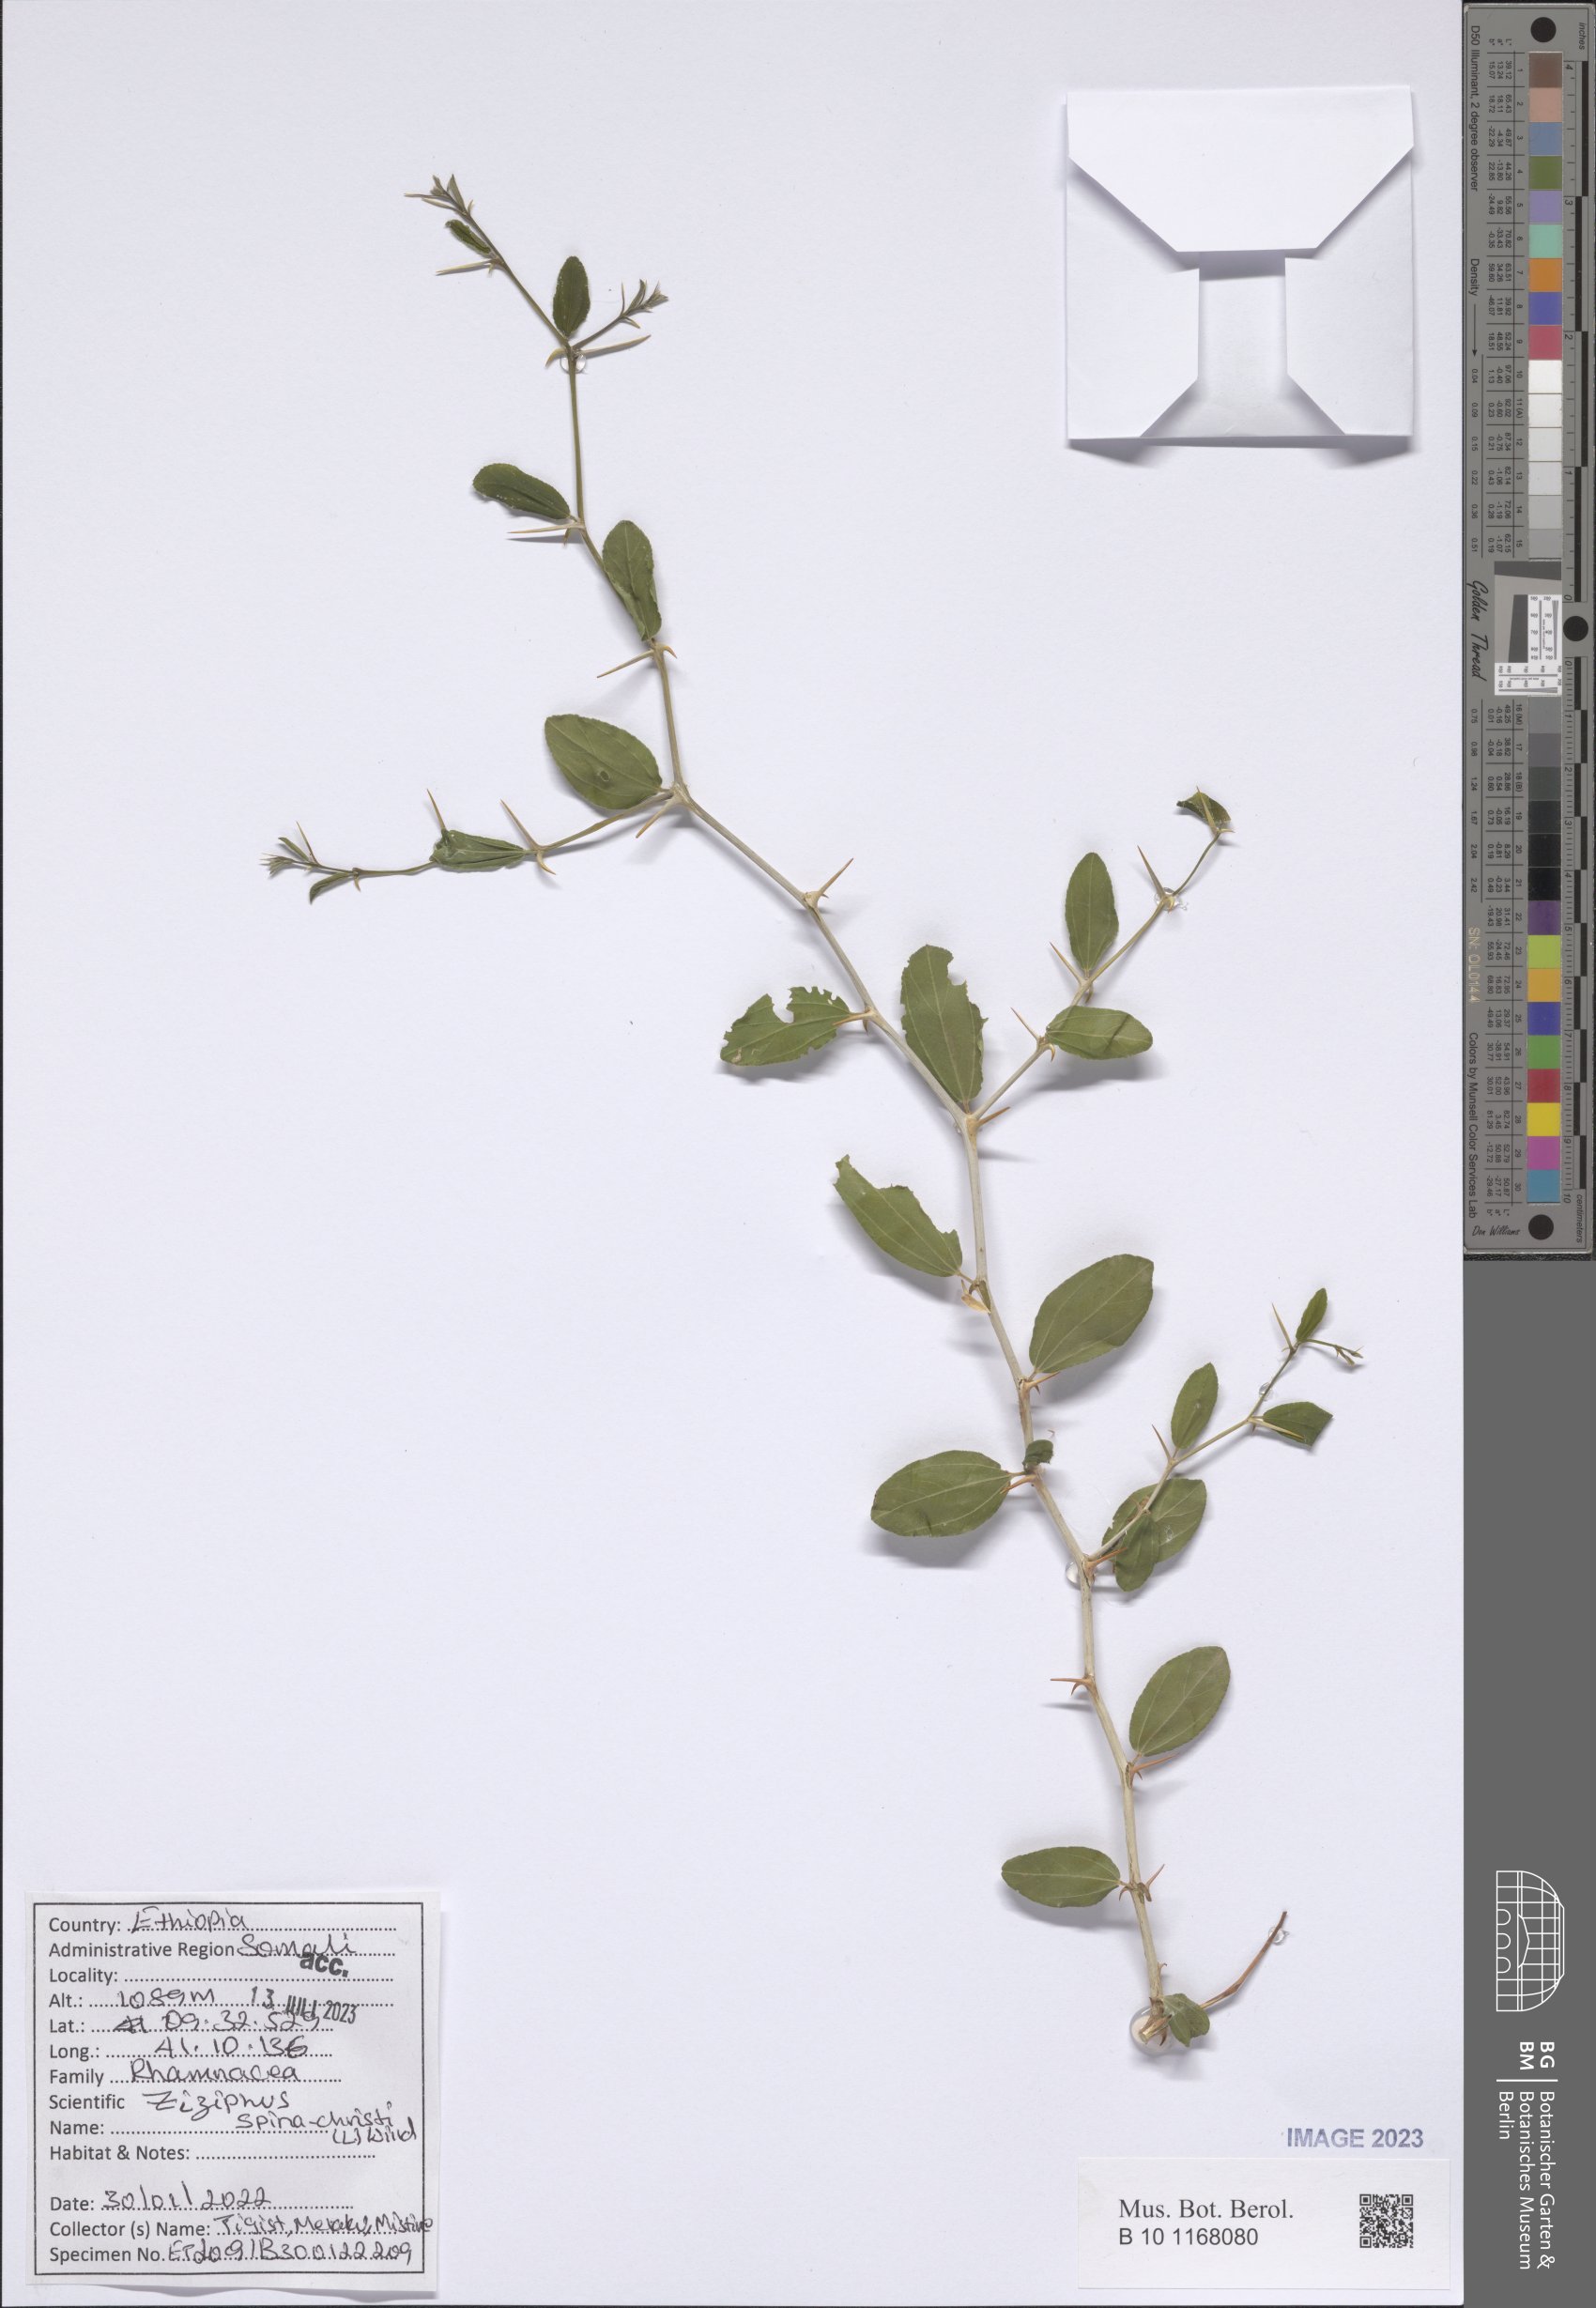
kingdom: Plantae
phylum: Tracheophyta
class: Magnoliopsida
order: Rosales
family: Rhamnaceae
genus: Ziziphus
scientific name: Ziziphus spina-christi
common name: Syrian christ-thorn
